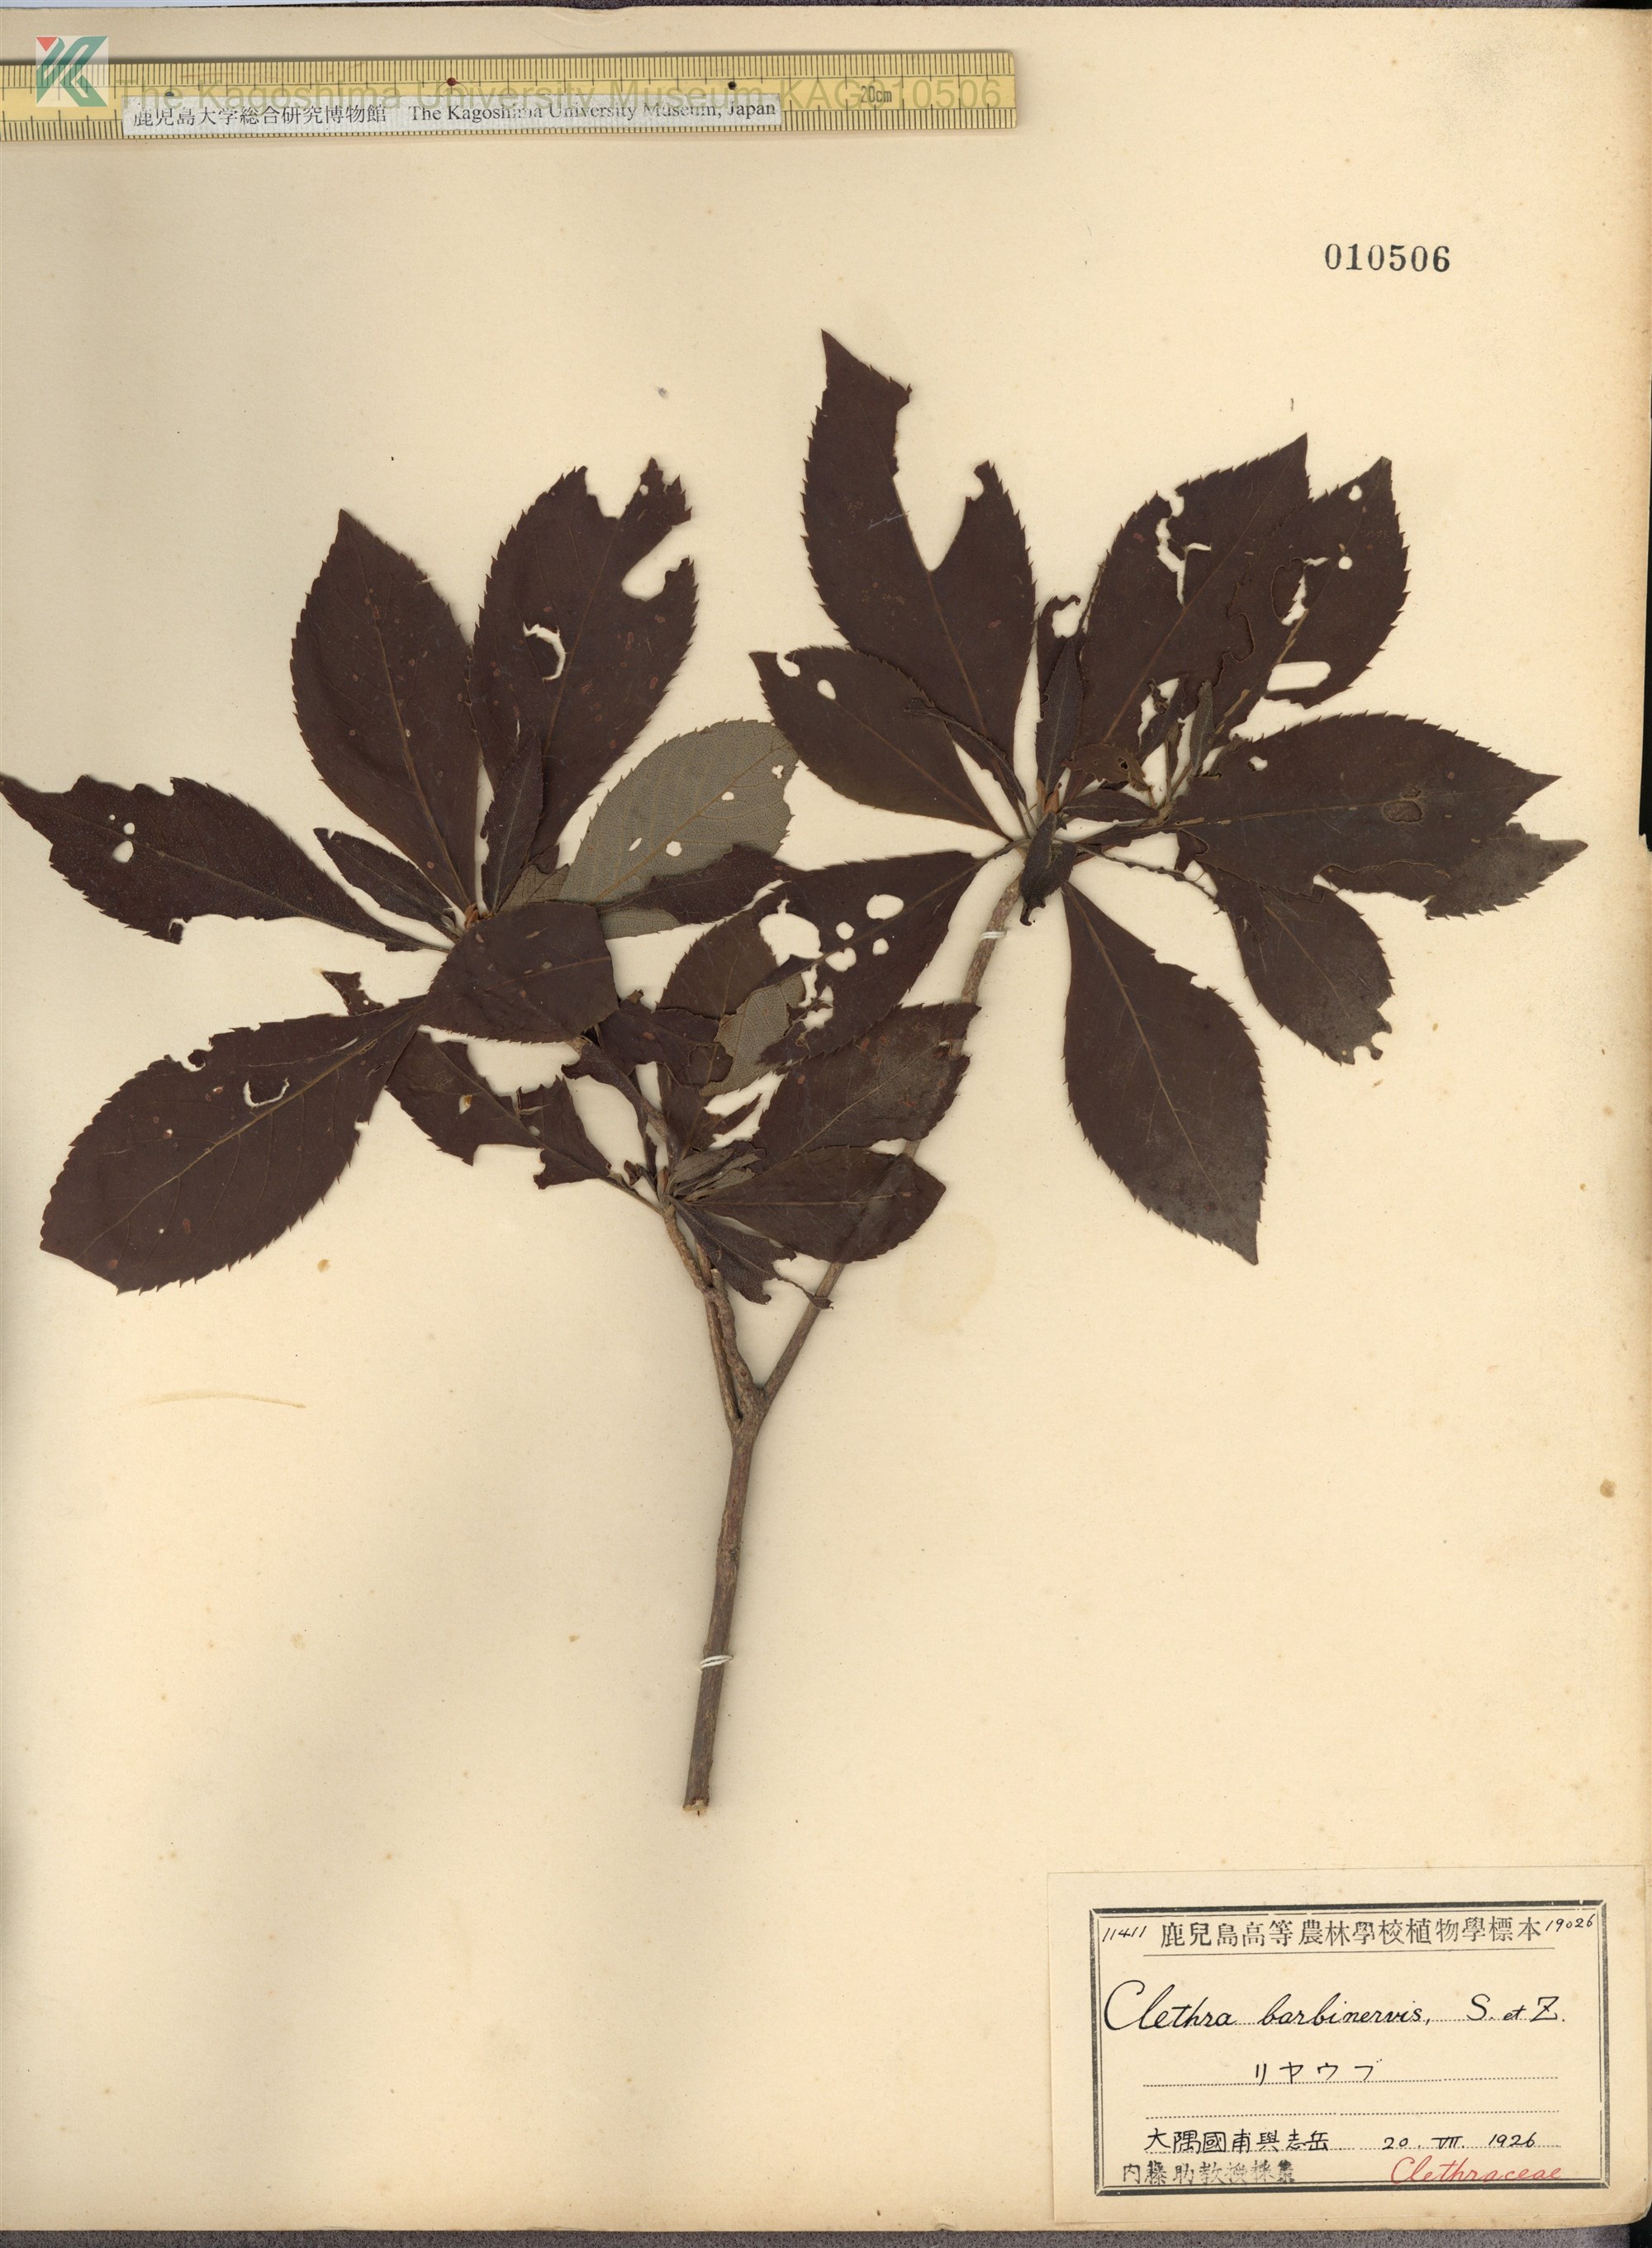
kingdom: Plantae
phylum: Tracheophyta
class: Magnoliopsida
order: Ericales
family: Clethraceae
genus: Clethra
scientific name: Clethra barbinervis
